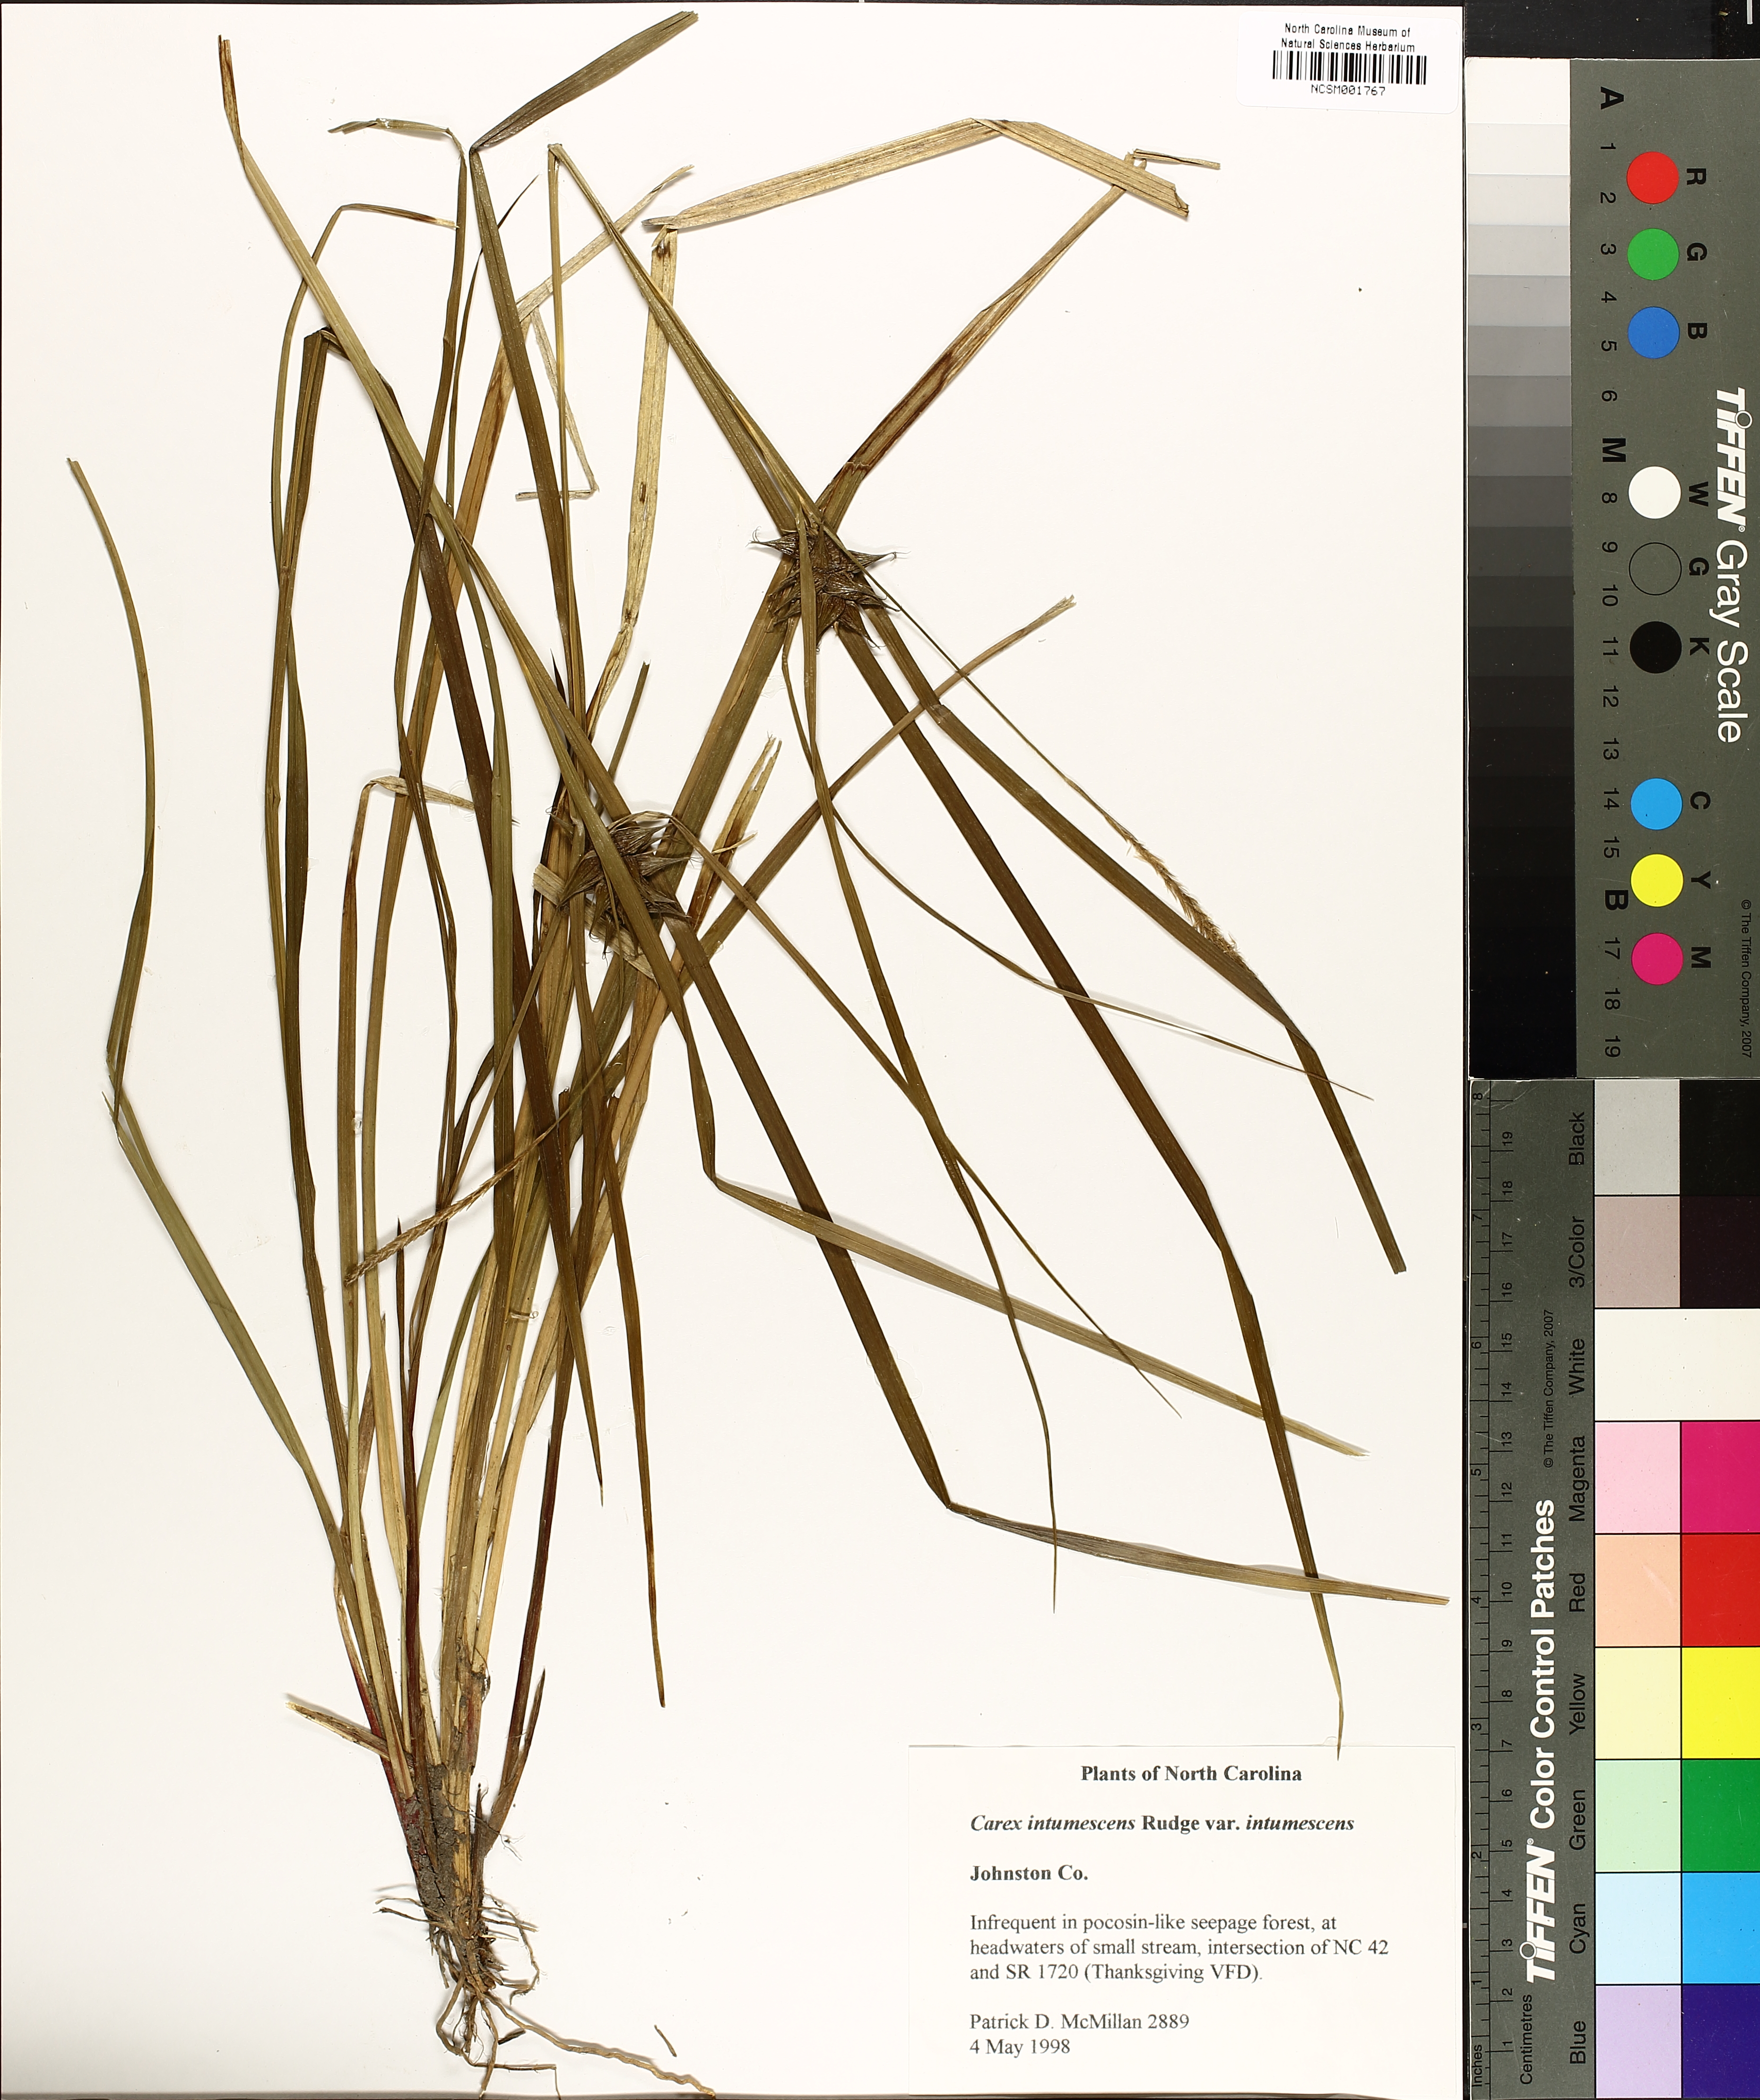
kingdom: Plantae
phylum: Tracheophyta
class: Liliopsida
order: Poales
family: Cyperaceae
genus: Carex
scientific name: Carex intumescens
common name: Greater bladder sedge
